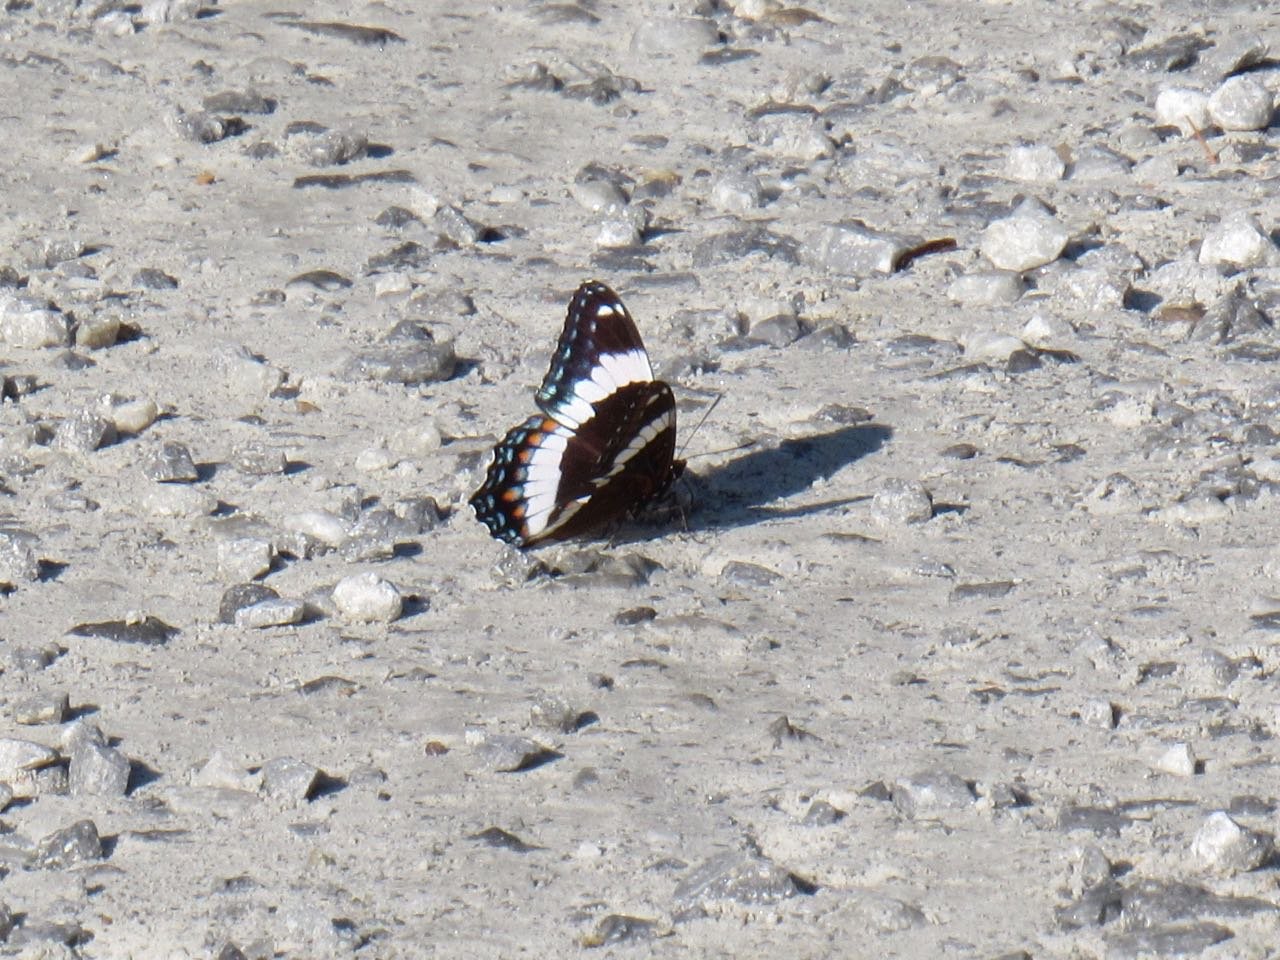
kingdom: Animalia
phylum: Arthropoda
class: Insecta
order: Lepidoptera
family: Nymphalidae
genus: Limenitis
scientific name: Limenitis arthemis
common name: Red-spotted Admiral
